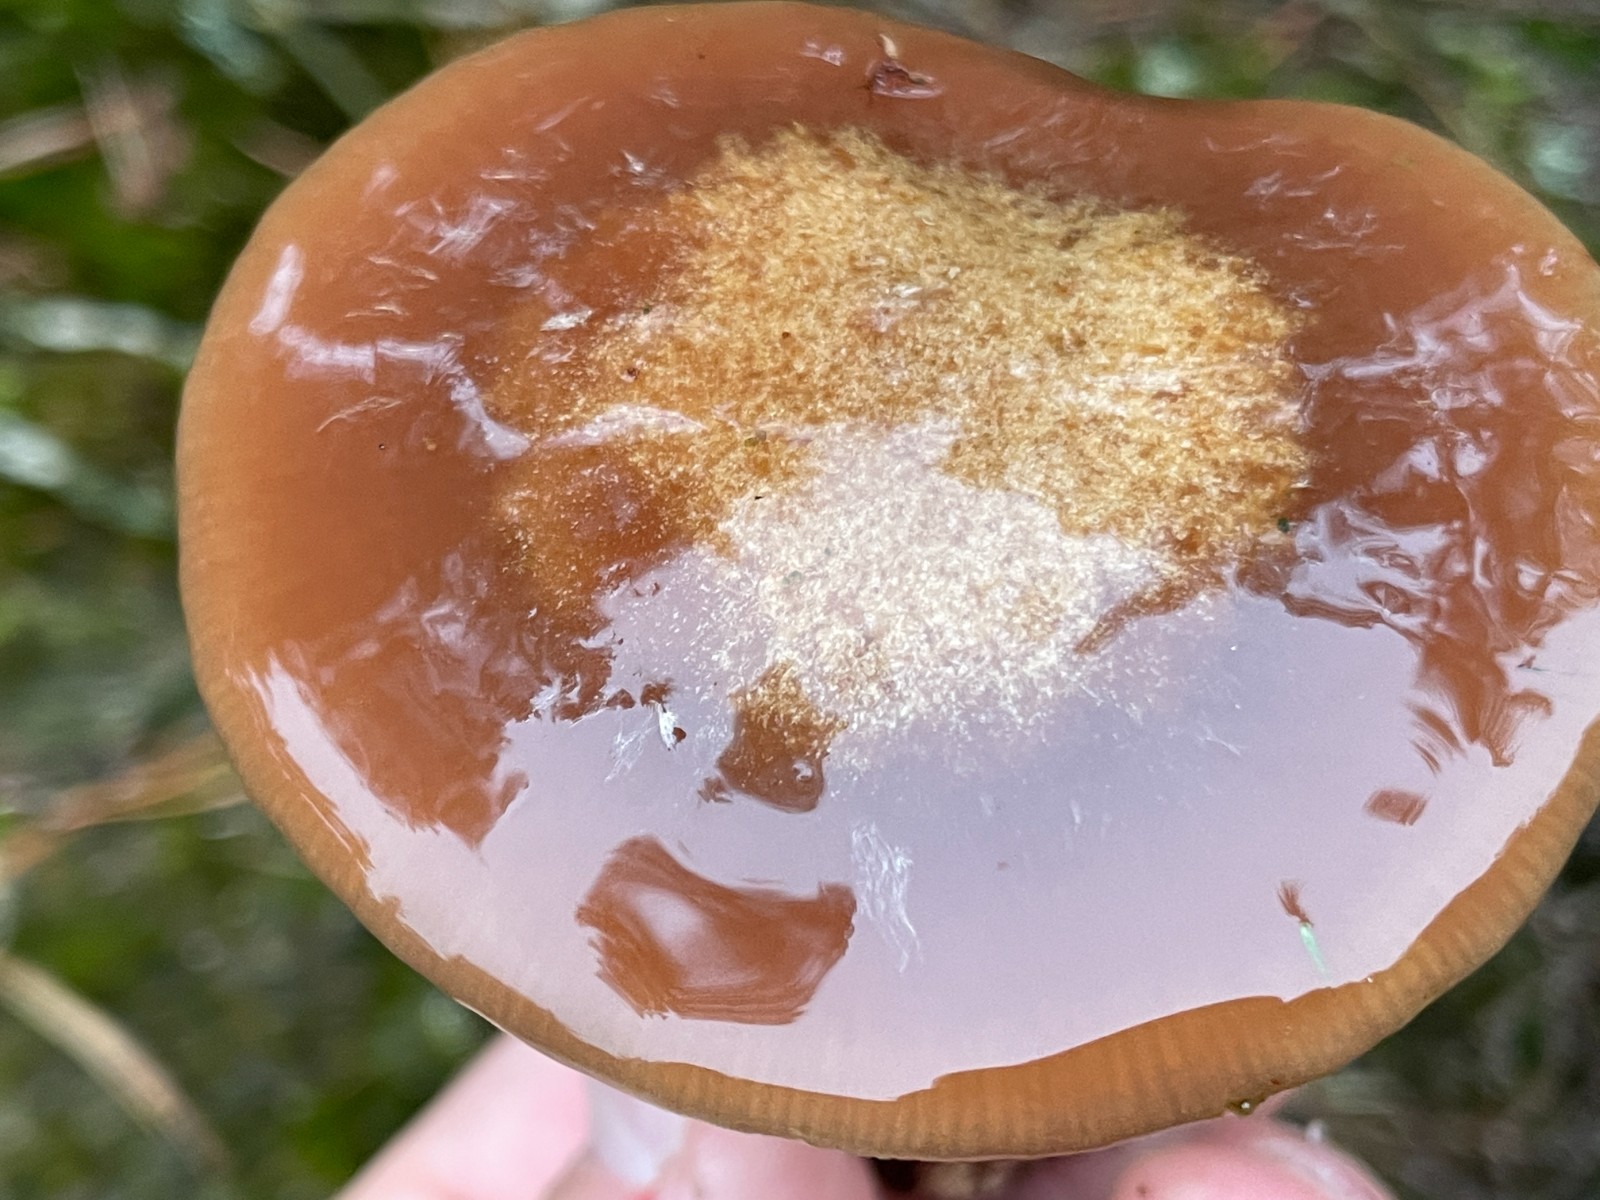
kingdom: Fungi
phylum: Basidiomycota
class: Agaricomycetes
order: Agaricales
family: Cortinariaceae
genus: Thaxterogaster
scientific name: Thaxterogaster sphagnophilus
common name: vandplettet slørhat
